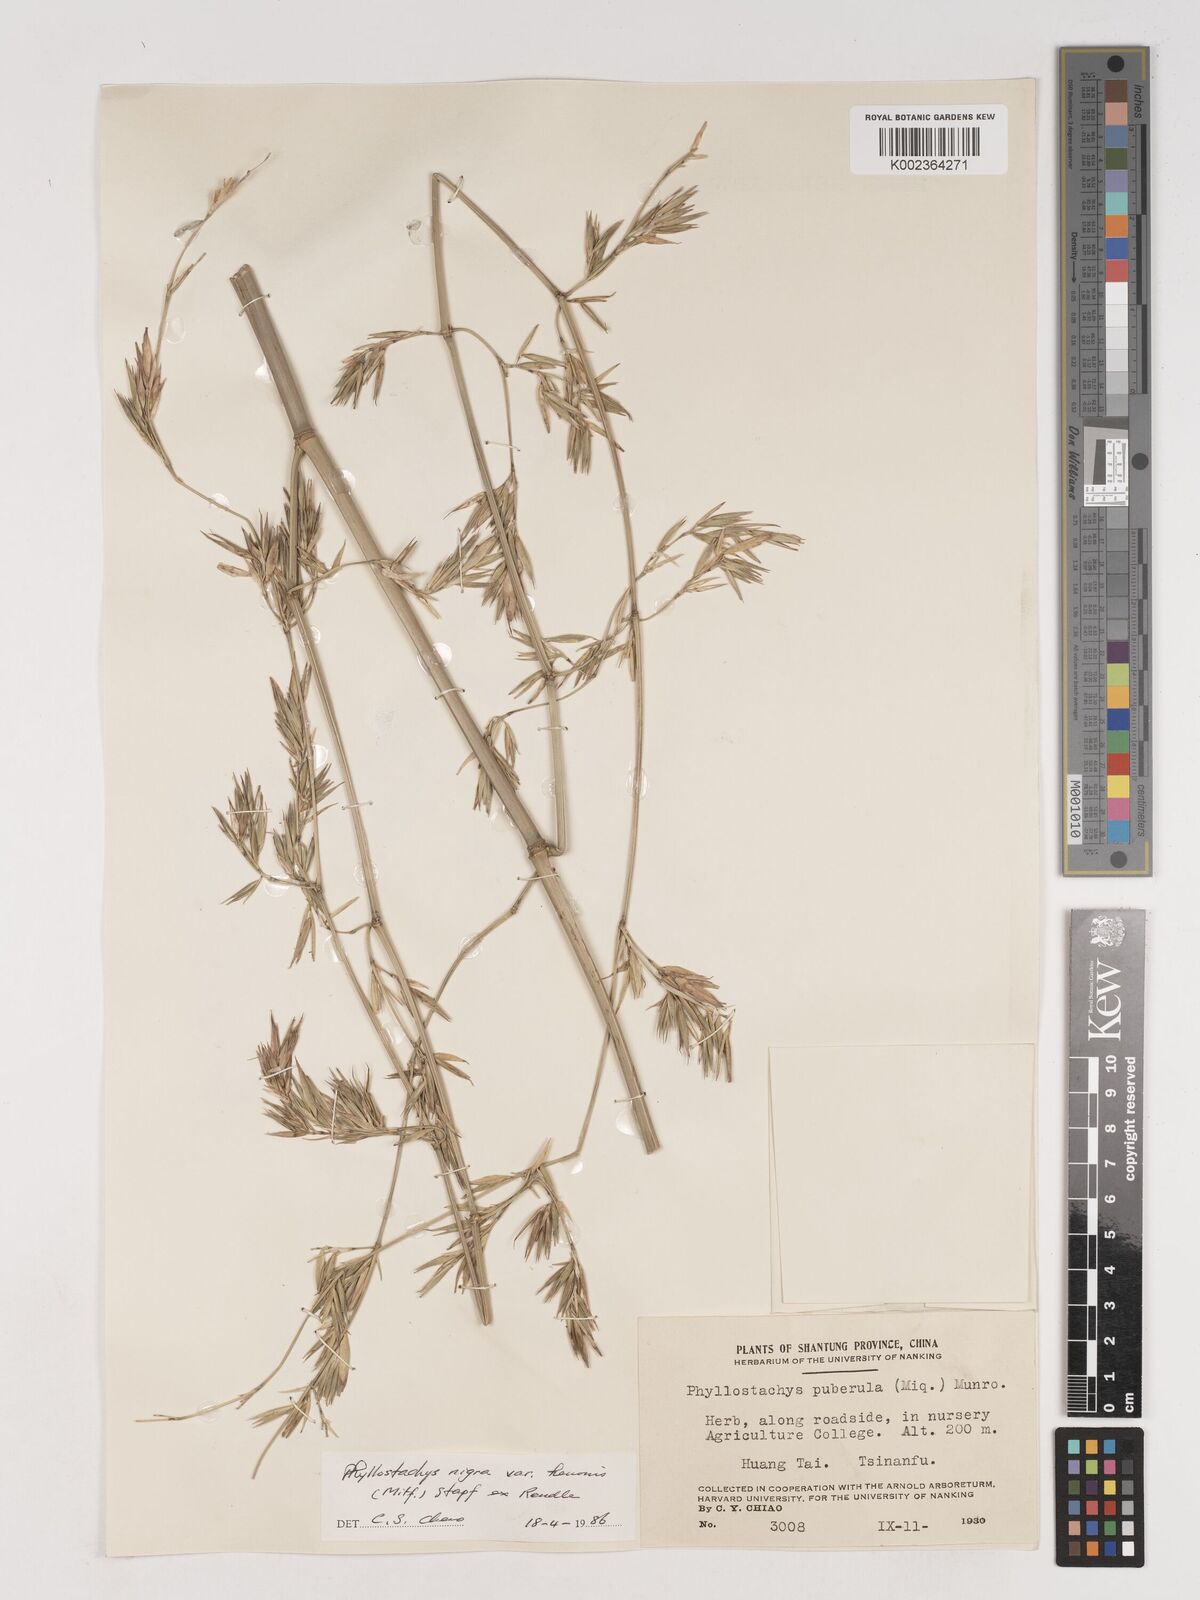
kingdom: Plantae
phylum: Tracheophyta
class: Liliopsida
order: Poales
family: Poaceae
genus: Phyllostachys
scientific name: Phyllostachys nigra
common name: Black bamboo
